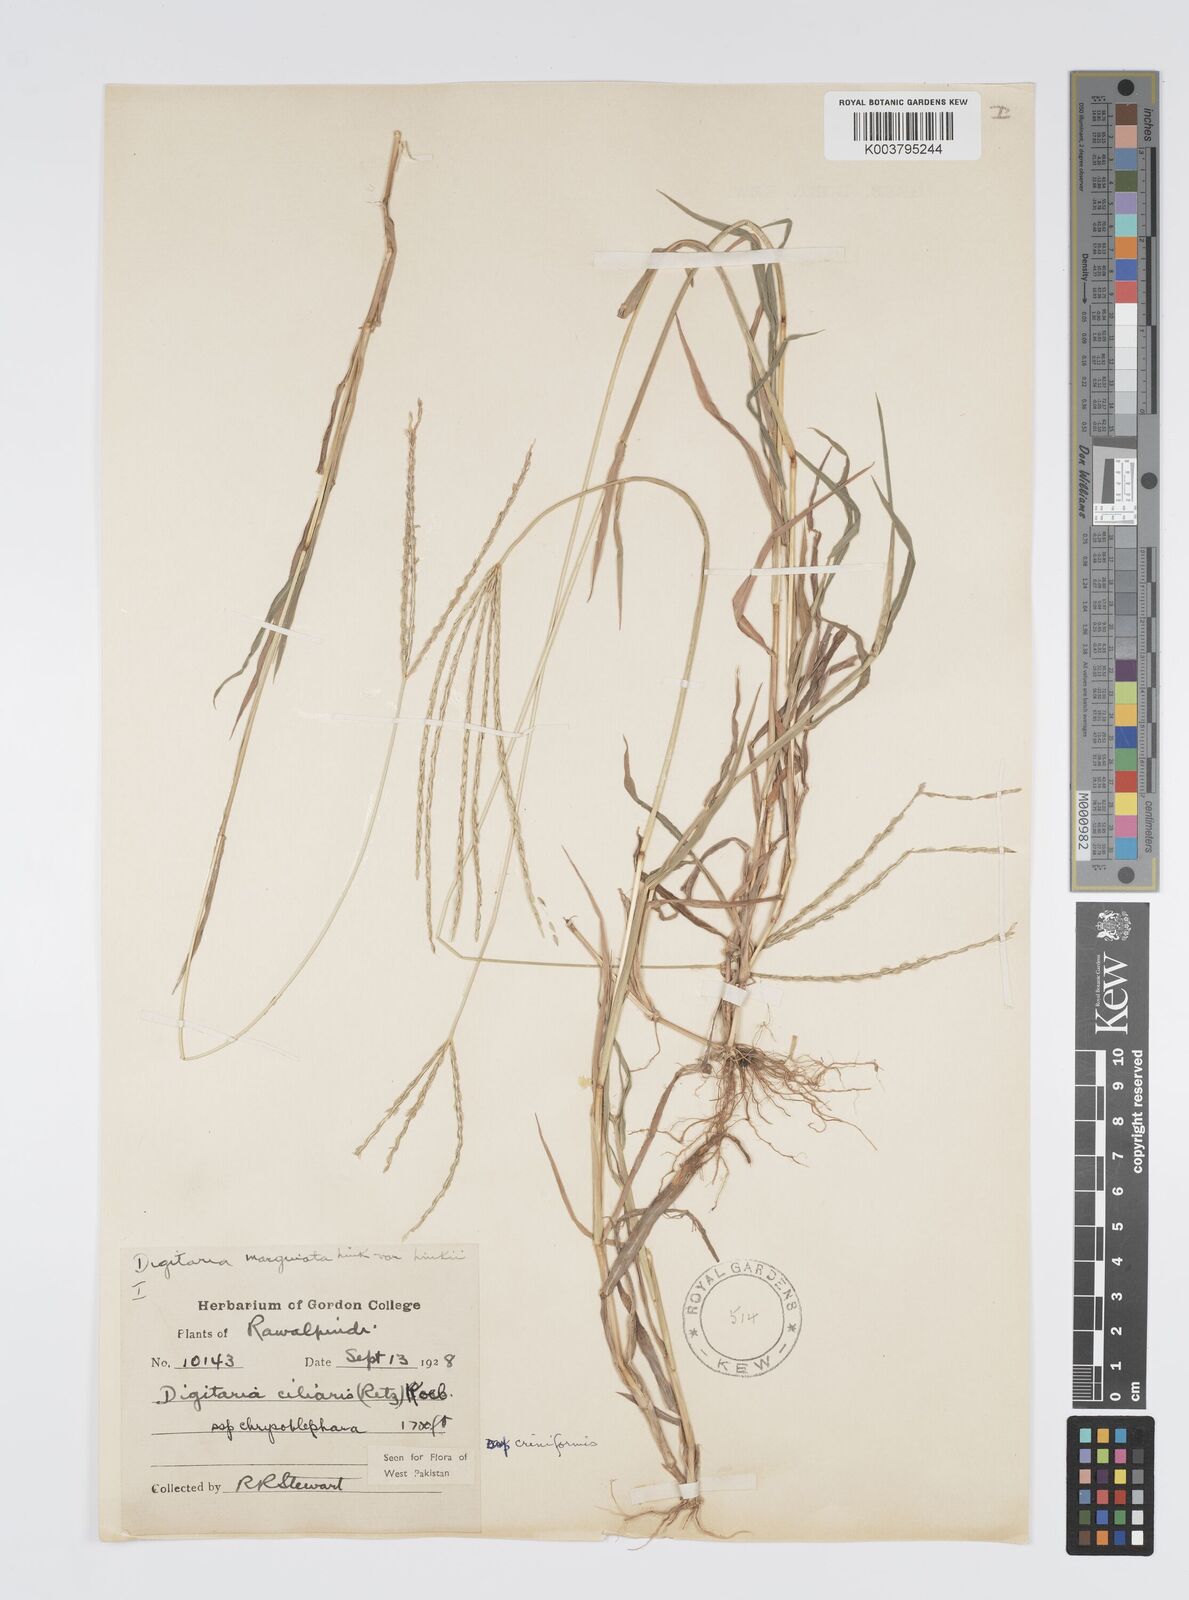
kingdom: Plantae
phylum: Tracheophyta
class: Liliopsida
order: Poales
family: Poaceae
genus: Digitaria
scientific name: Digitaria ciliaris
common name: Tropical finger-grass
